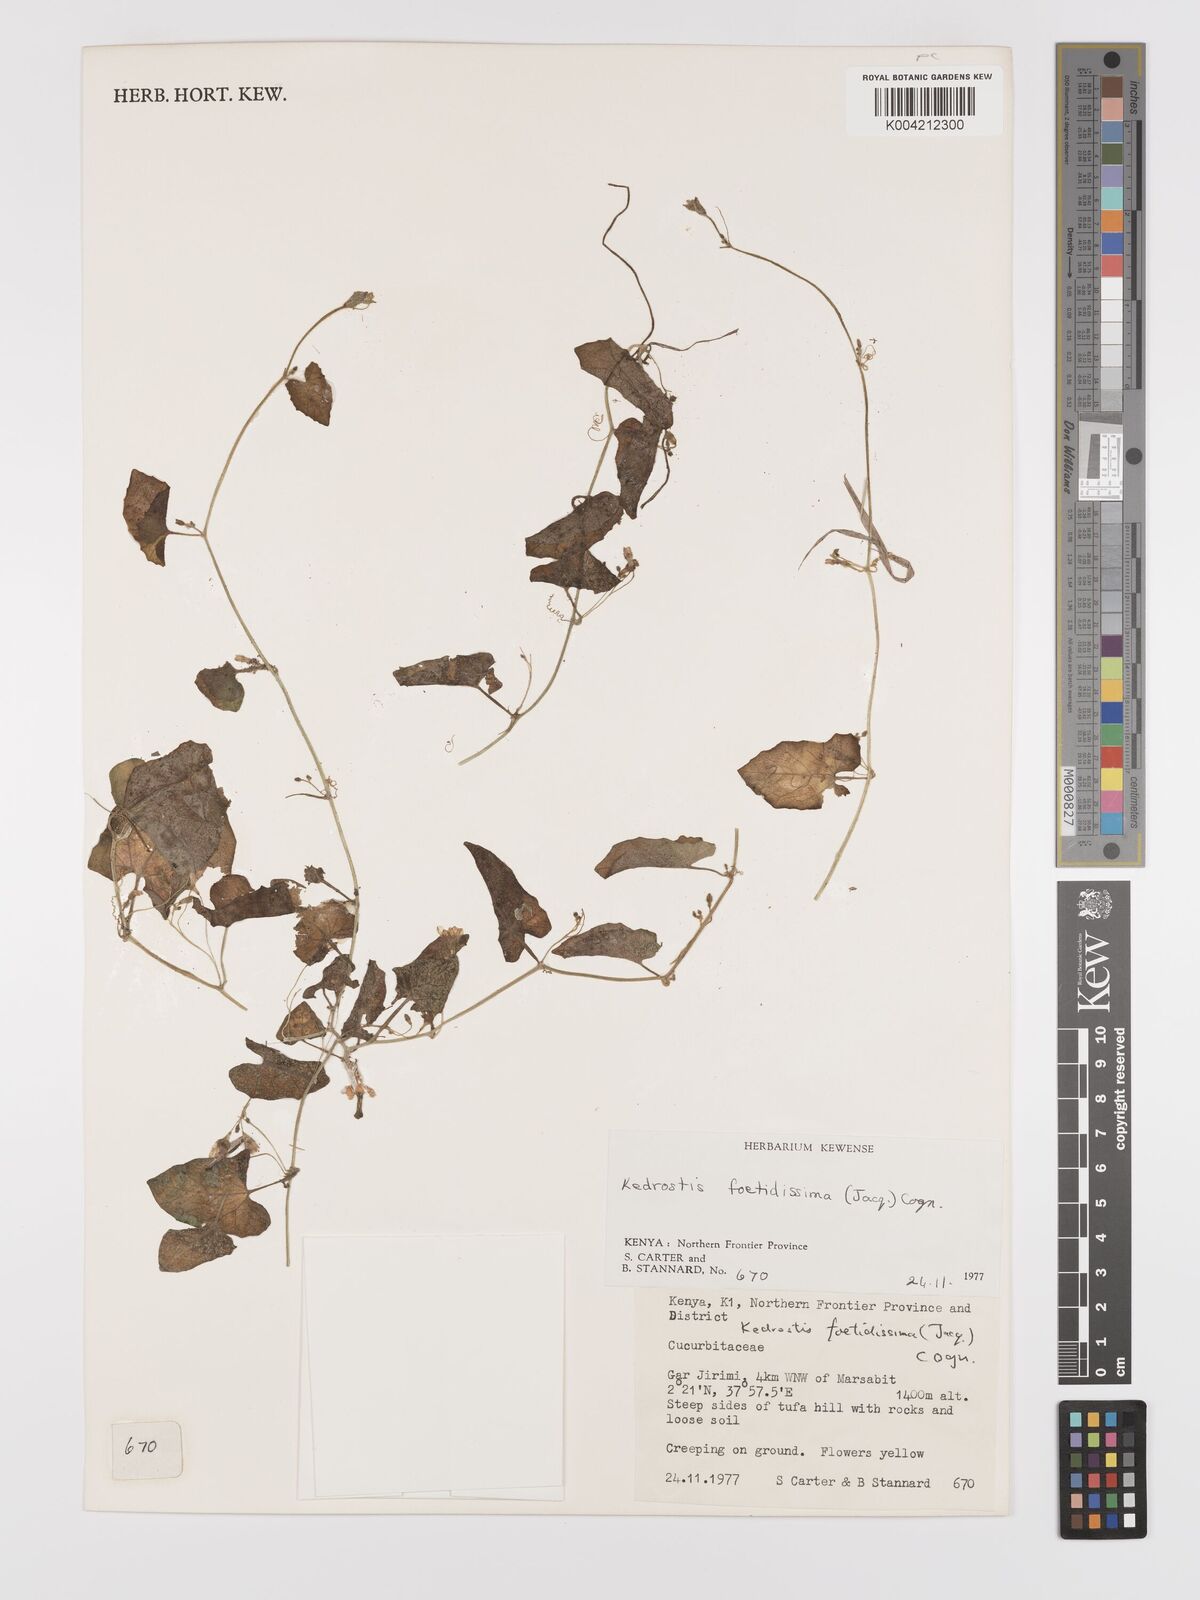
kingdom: Plantae
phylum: Tracheophyta
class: Magnoliopsida
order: Cucurbitales
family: Cucurbitaceae
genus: Kedrostis
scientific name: Kedrostis foetidissima
